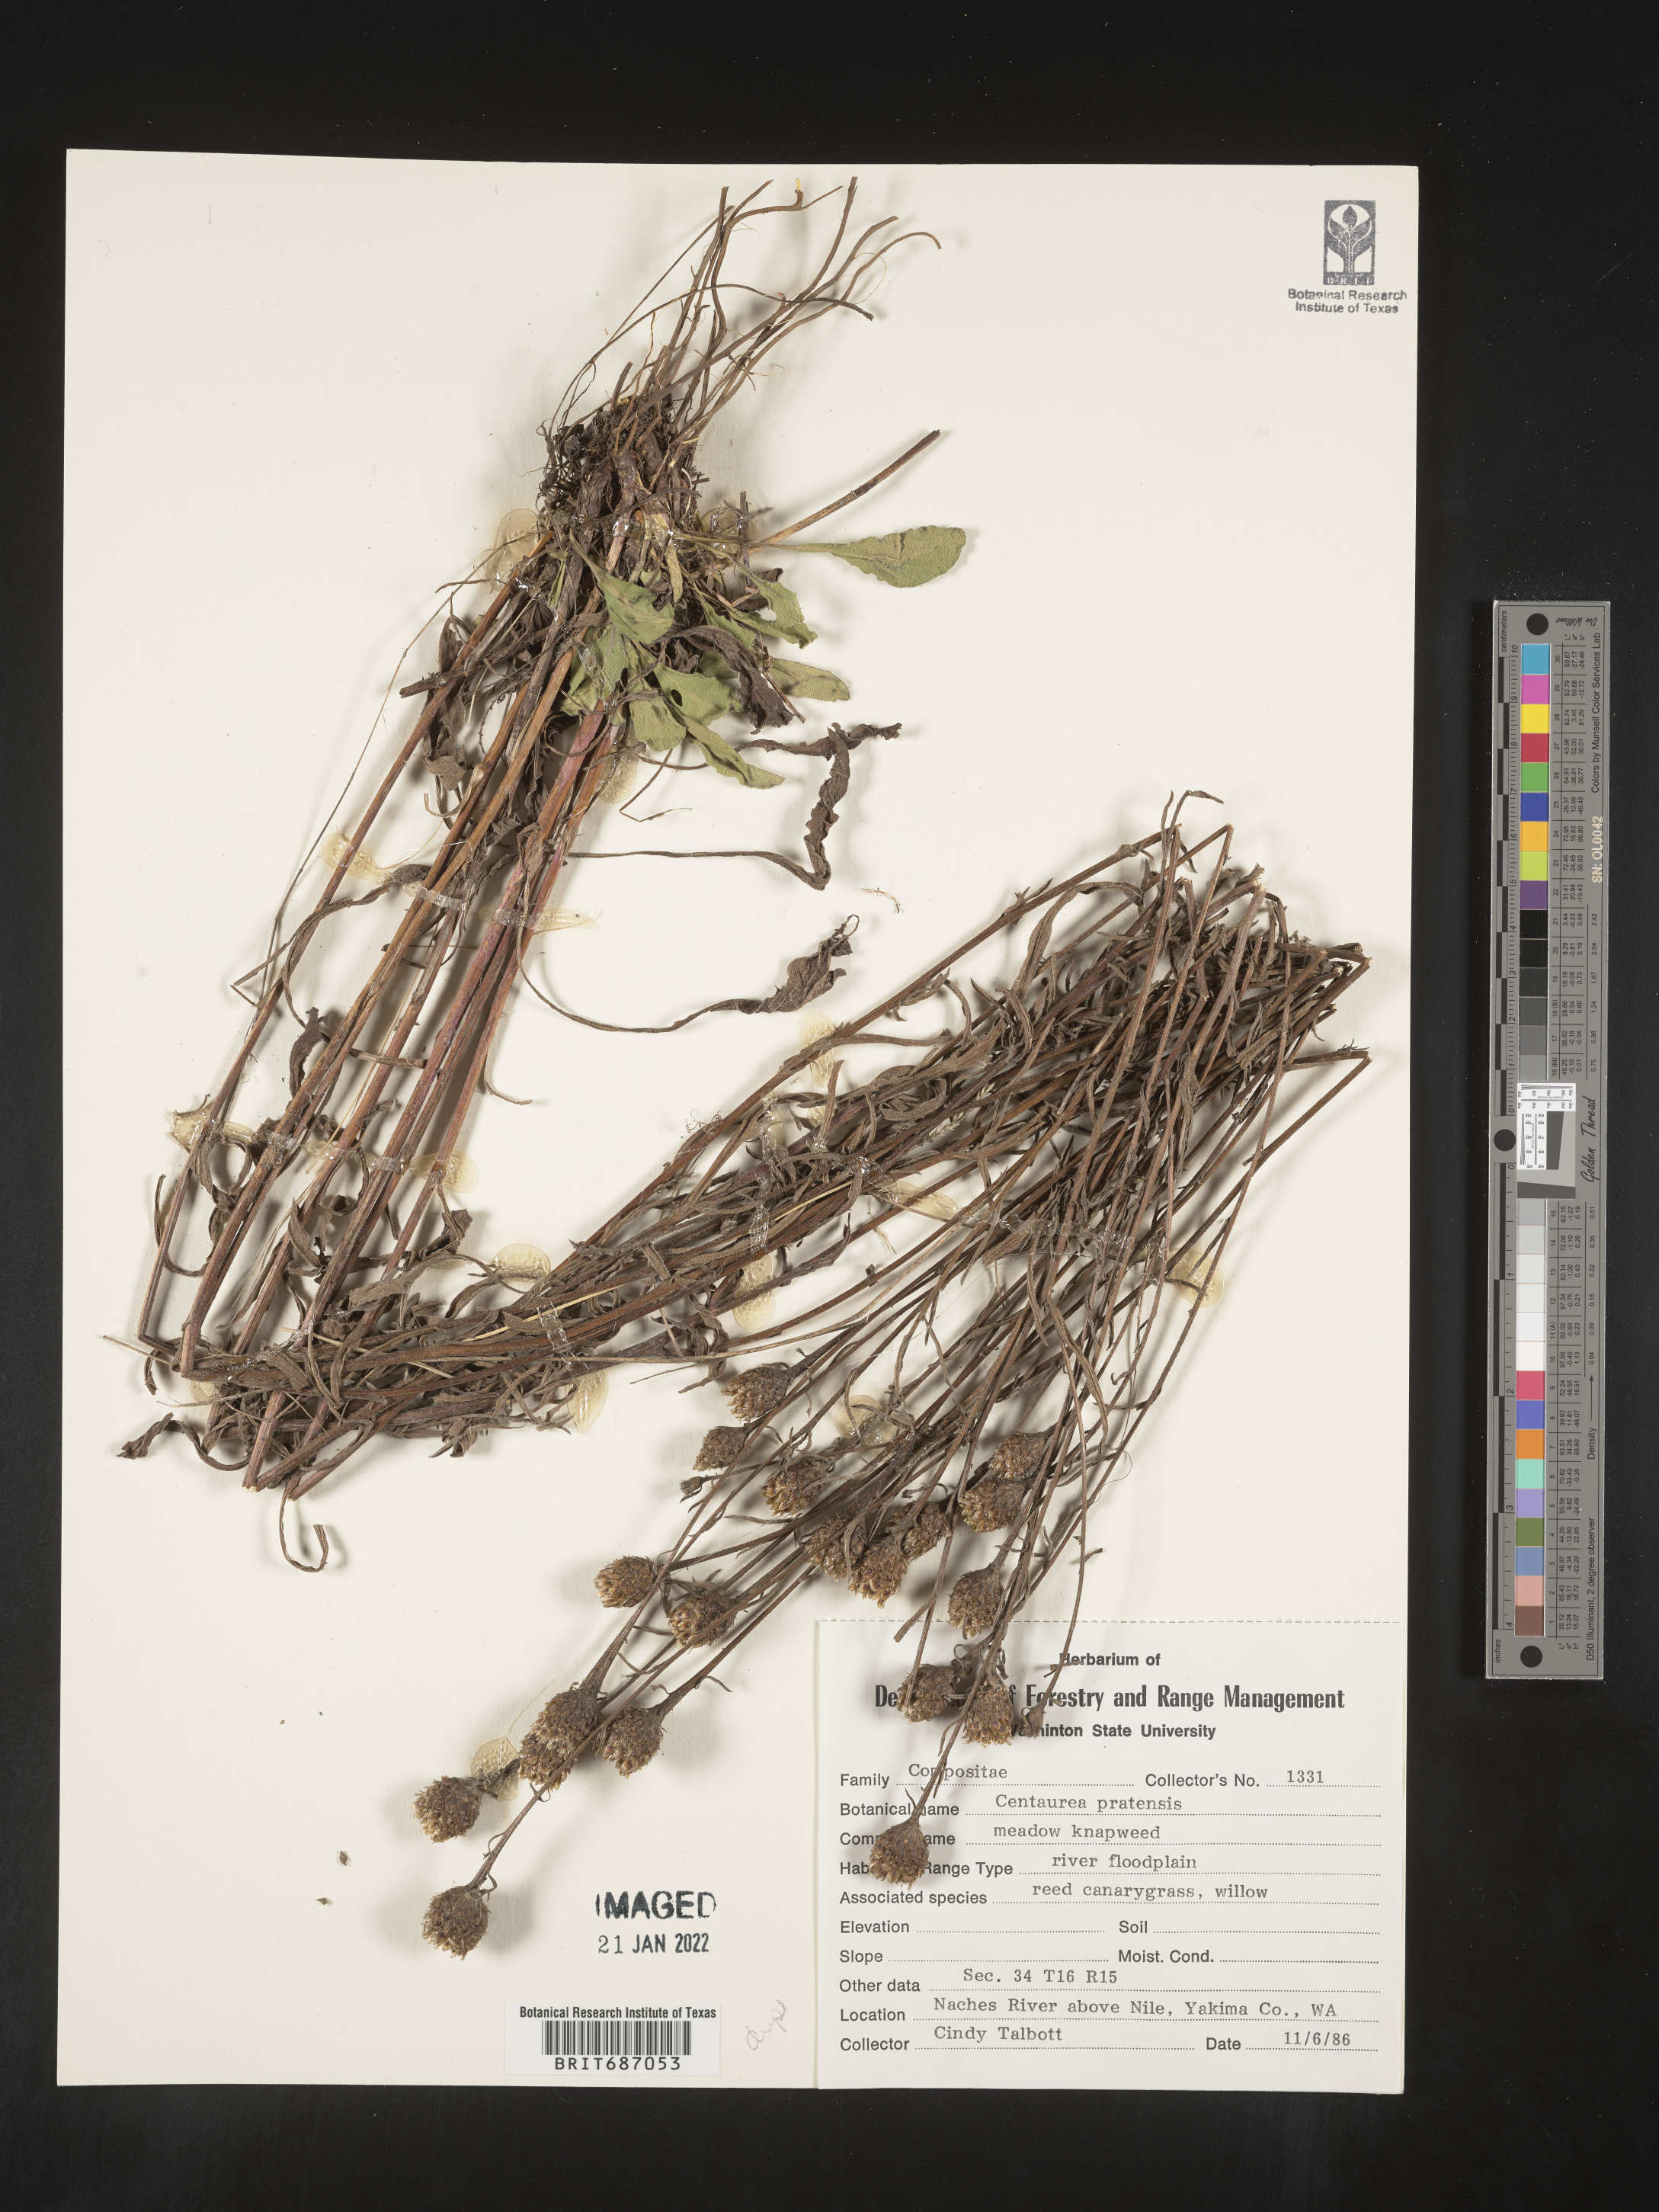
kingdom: Plantae
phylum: Tracheophyta
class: Magnoliopsida
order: Asterales
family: Asteraceae
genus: Centaurea
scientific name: Centaurea debeauxii
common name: Slender knapweed
